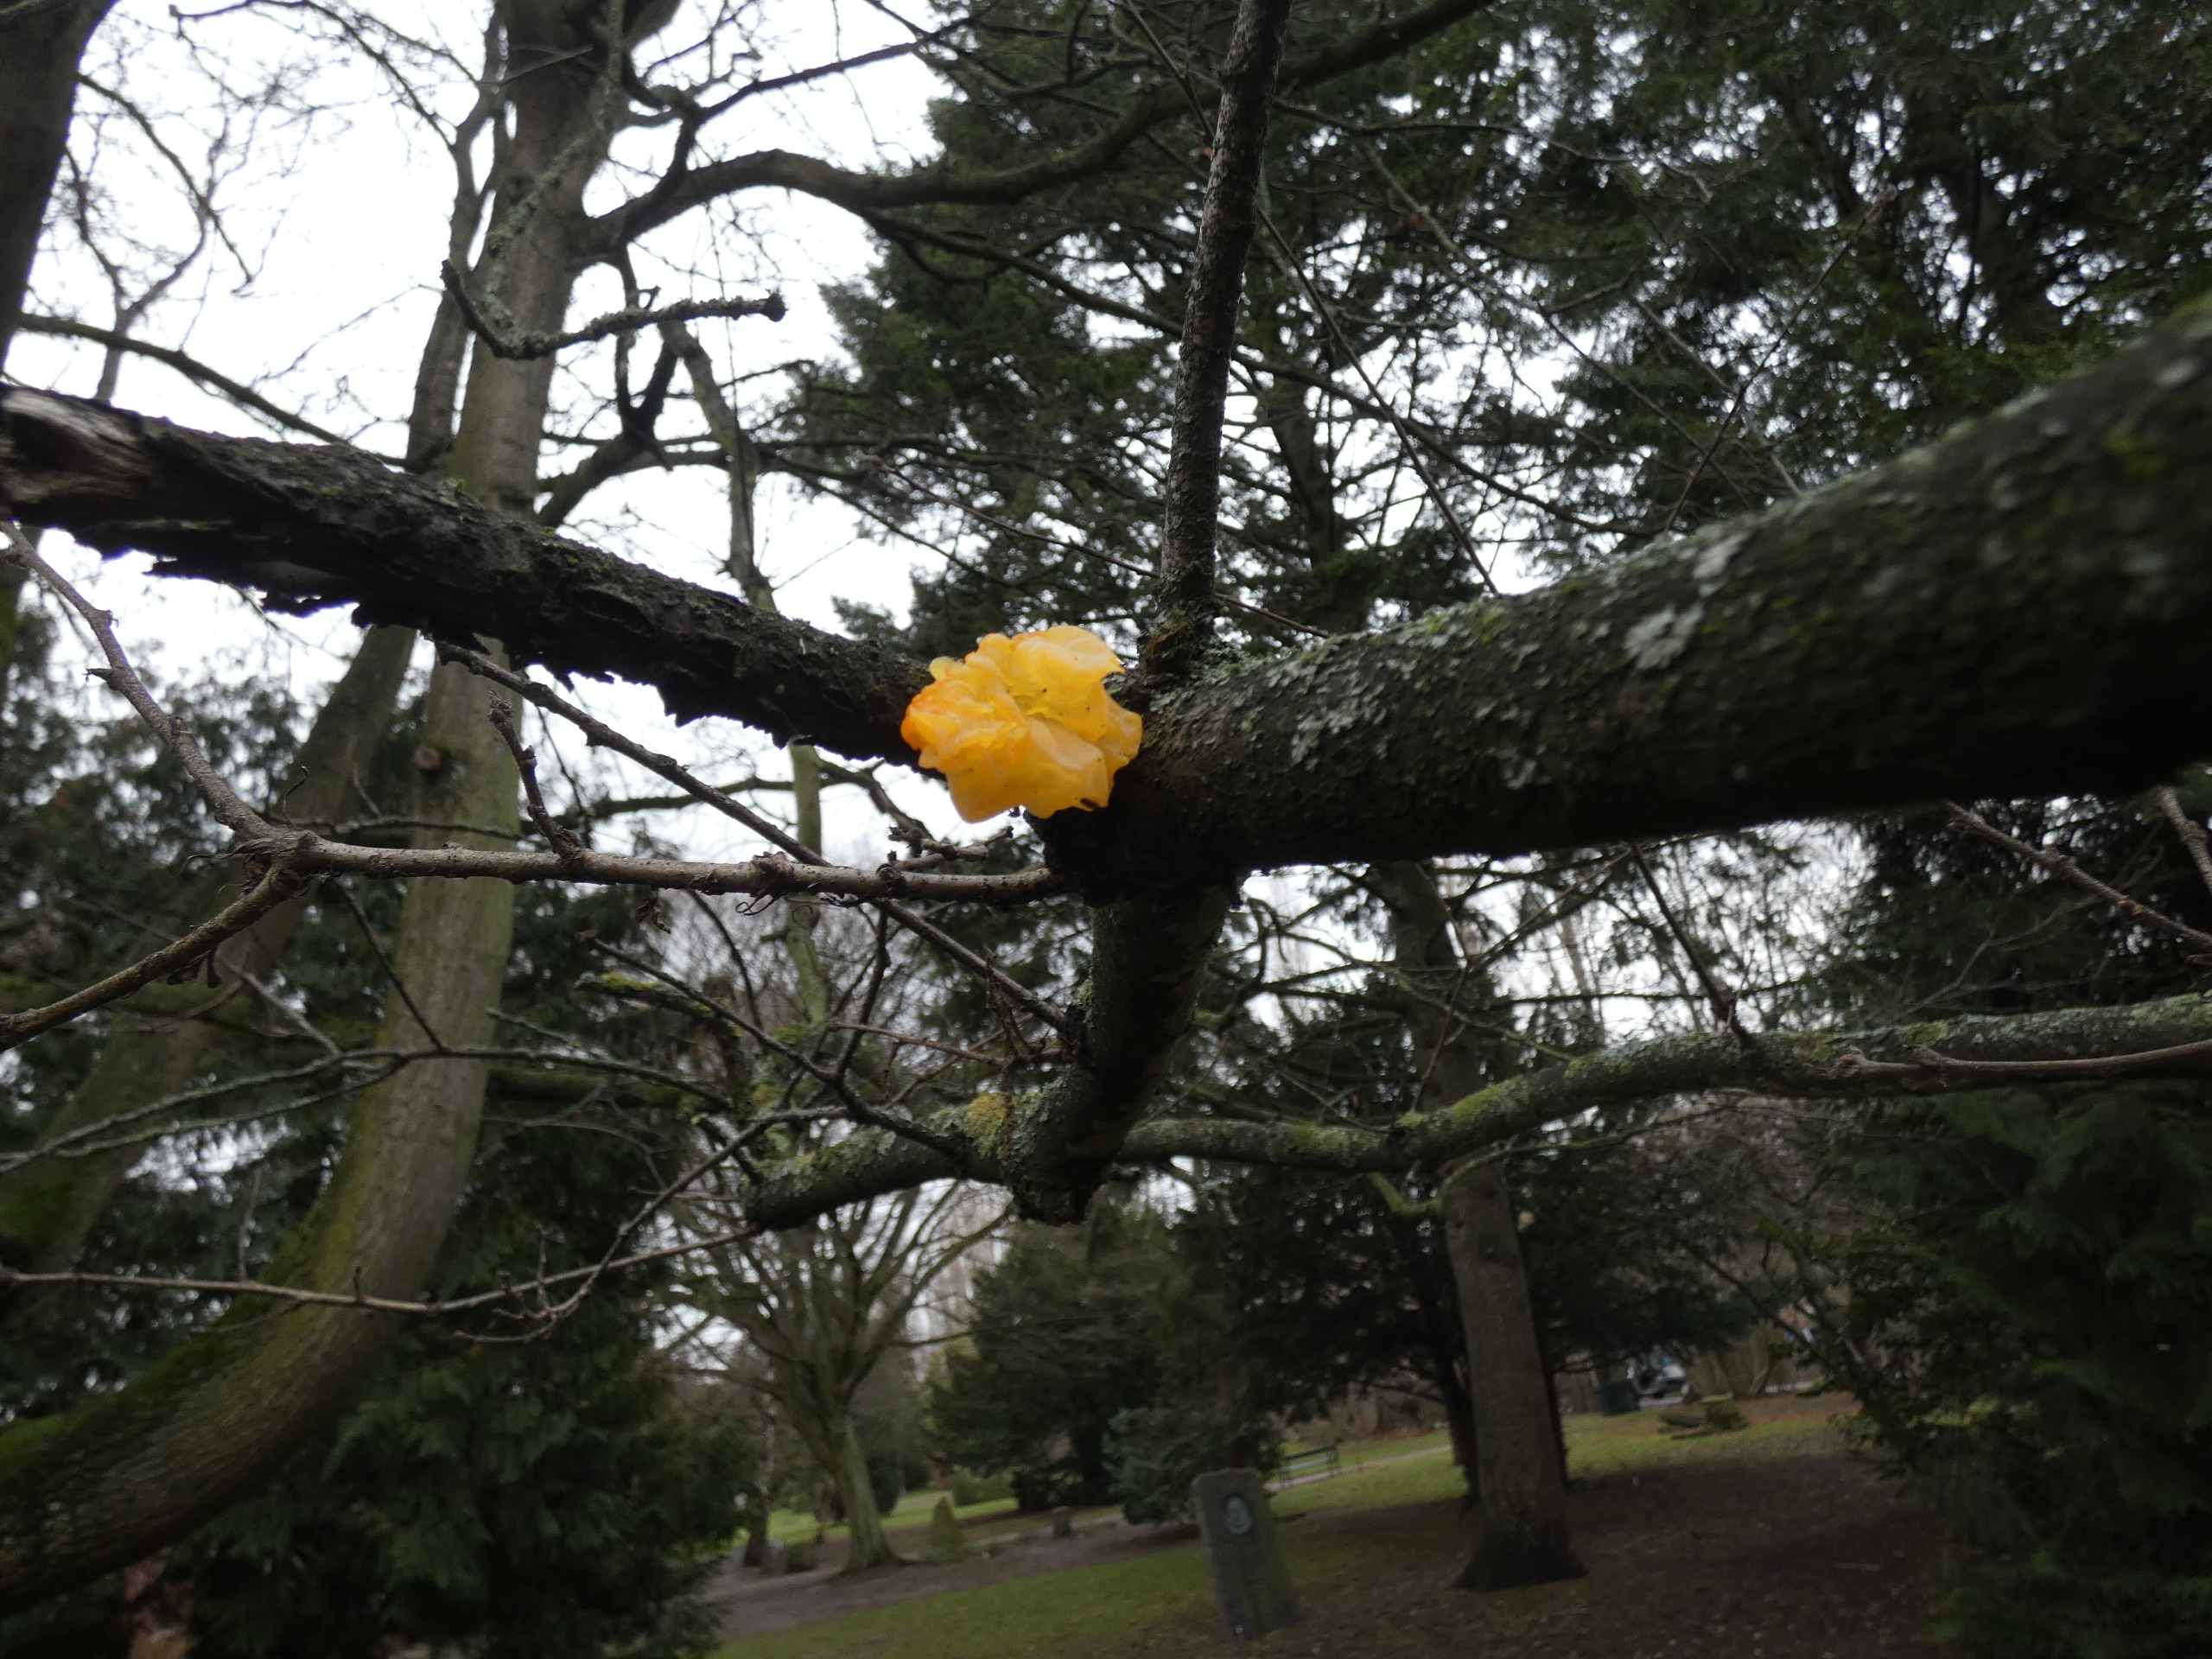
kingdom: Fungi
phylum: Basidiomycota
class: Tremellomycetes
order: Tremellales
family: Tremellaceae
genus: Tremella
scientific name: Tremella mesenterica
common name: Gul bævresvamp
